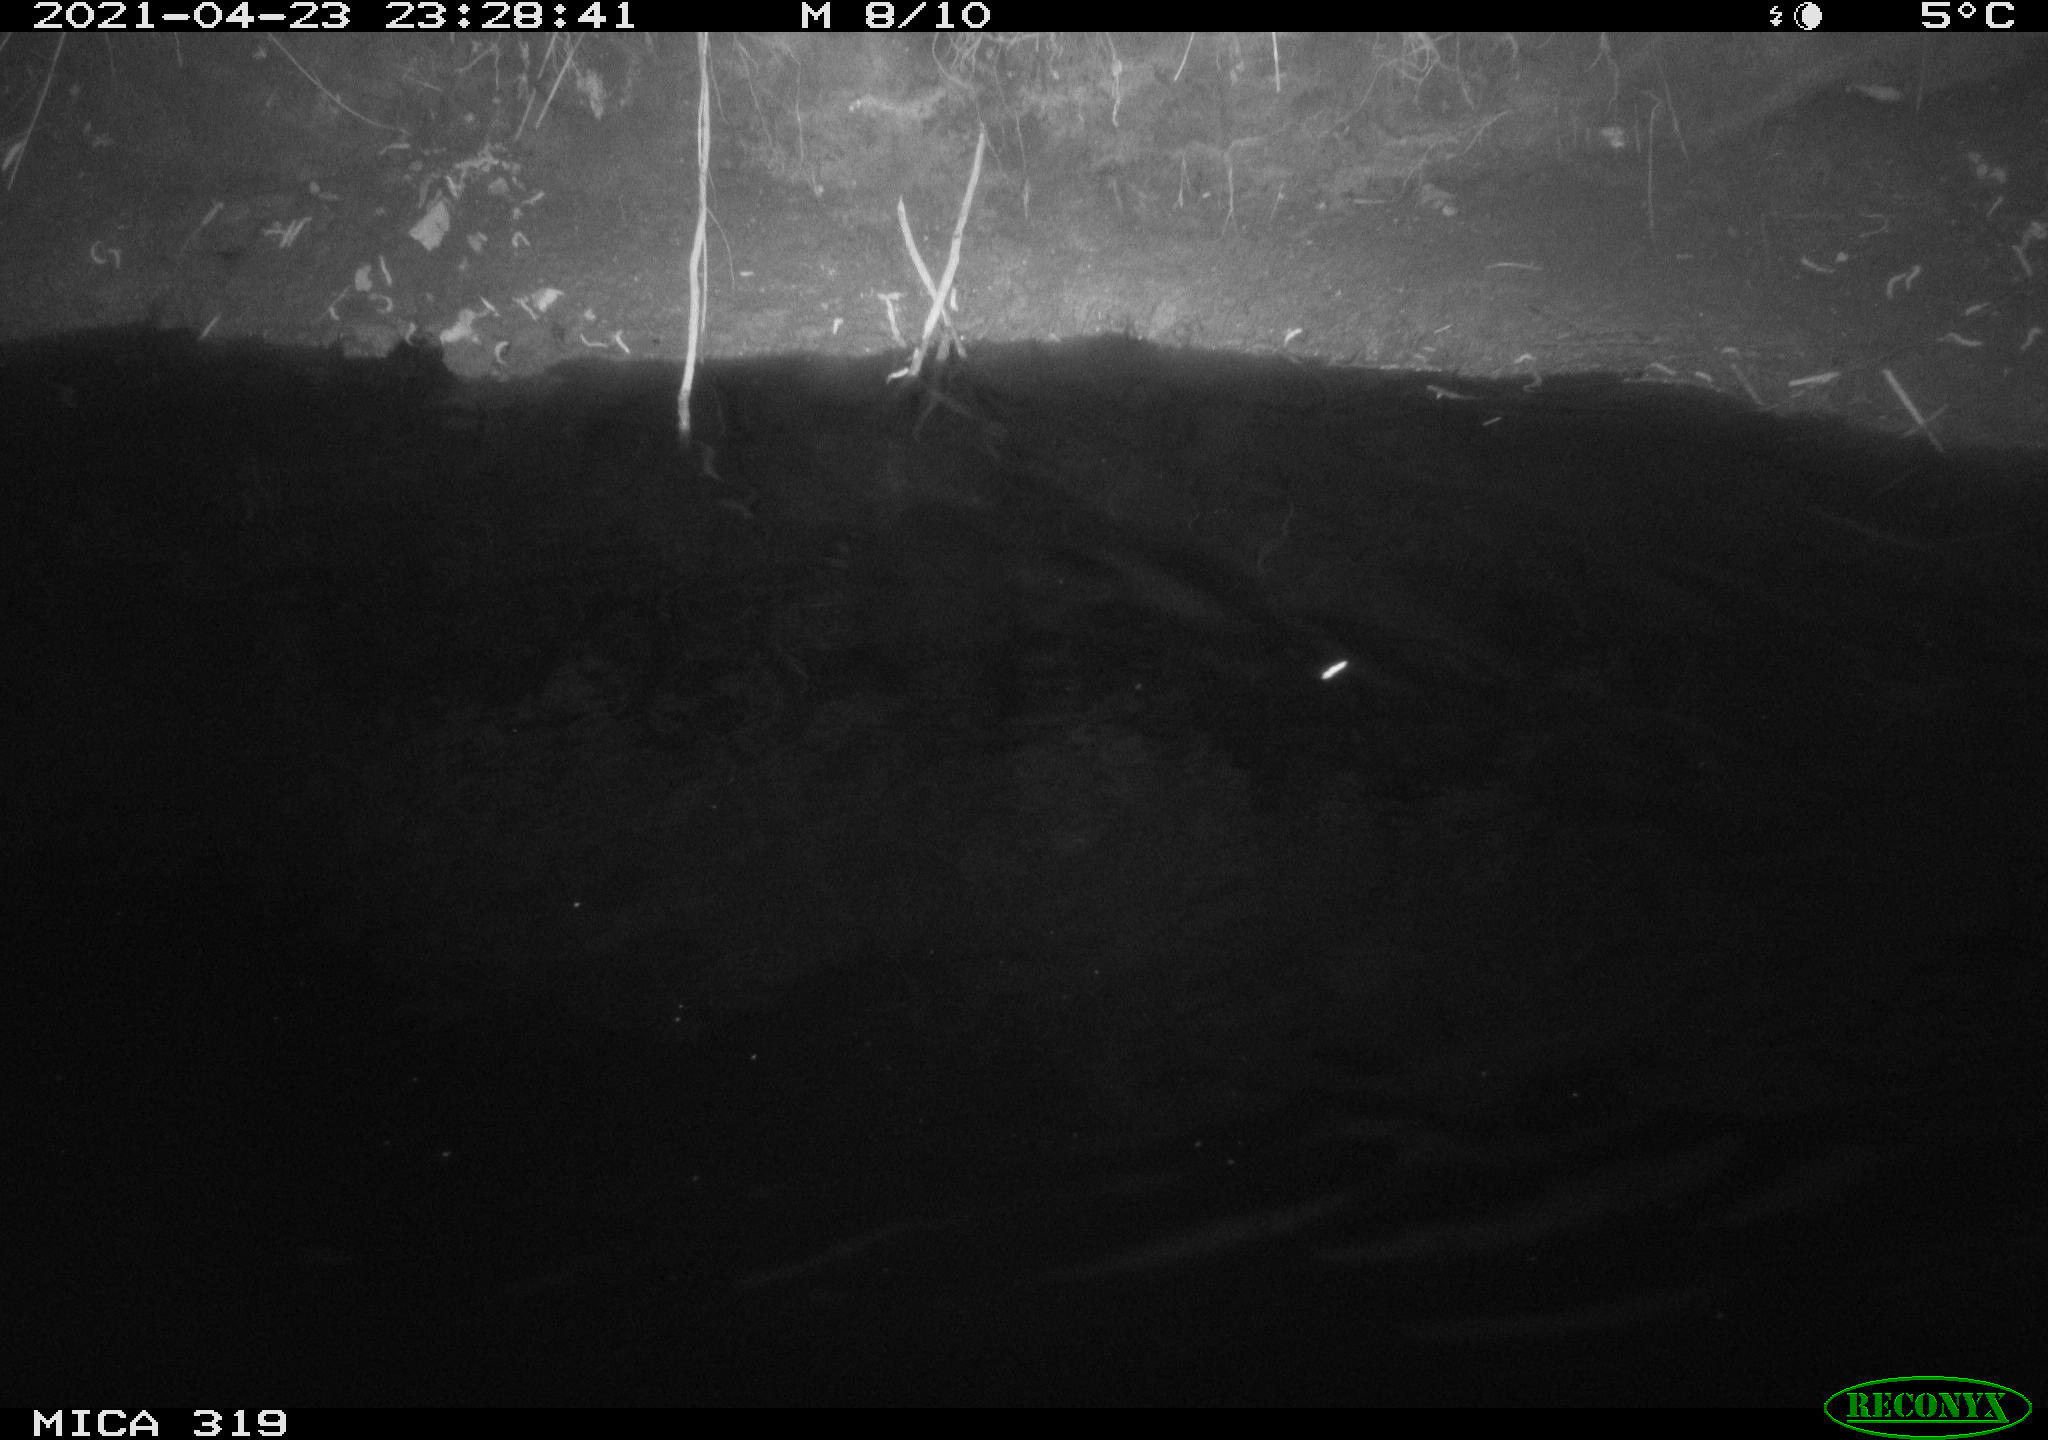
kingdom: Animalia
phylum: Chordata
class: Aves
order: Anseriformes
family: Anatidae
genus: Anas
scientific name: Anas platyrhynchos
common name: Mallard
